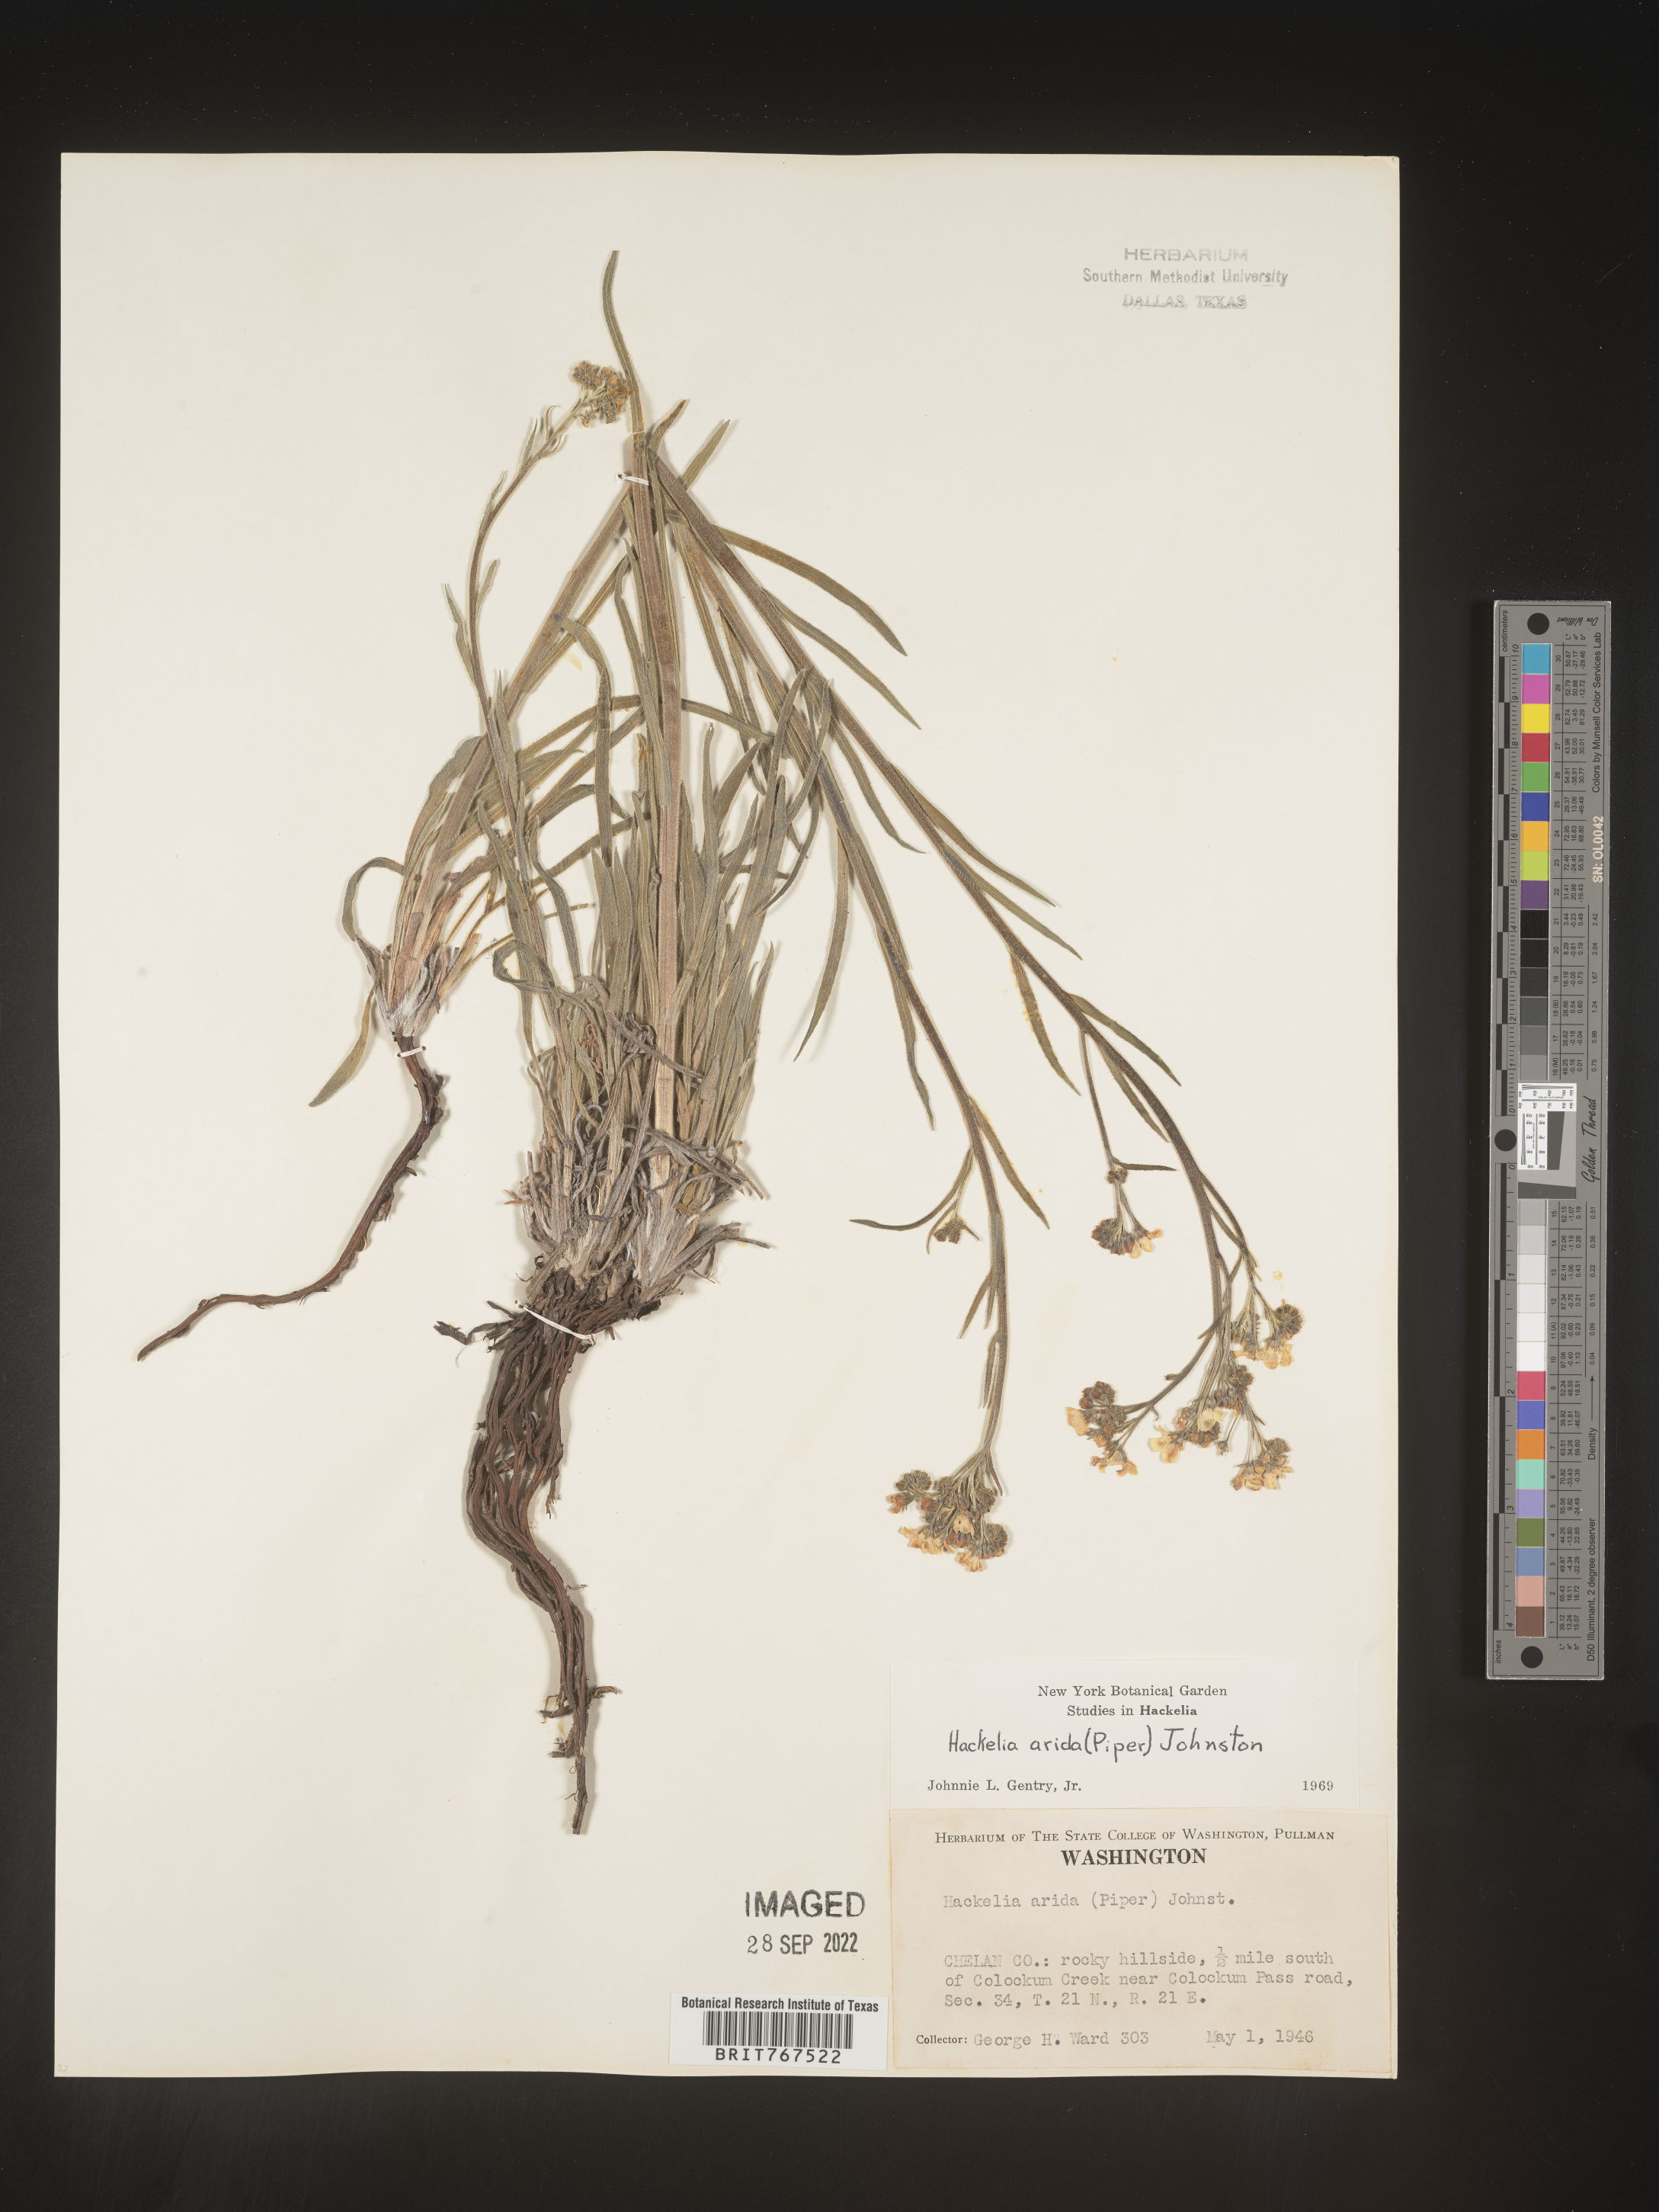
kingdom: Plantae
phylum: Tracheophyta
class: Magnoliopsida
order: Boraginales
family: Boraginaceae
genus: Hackelia
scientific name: Hackelia
